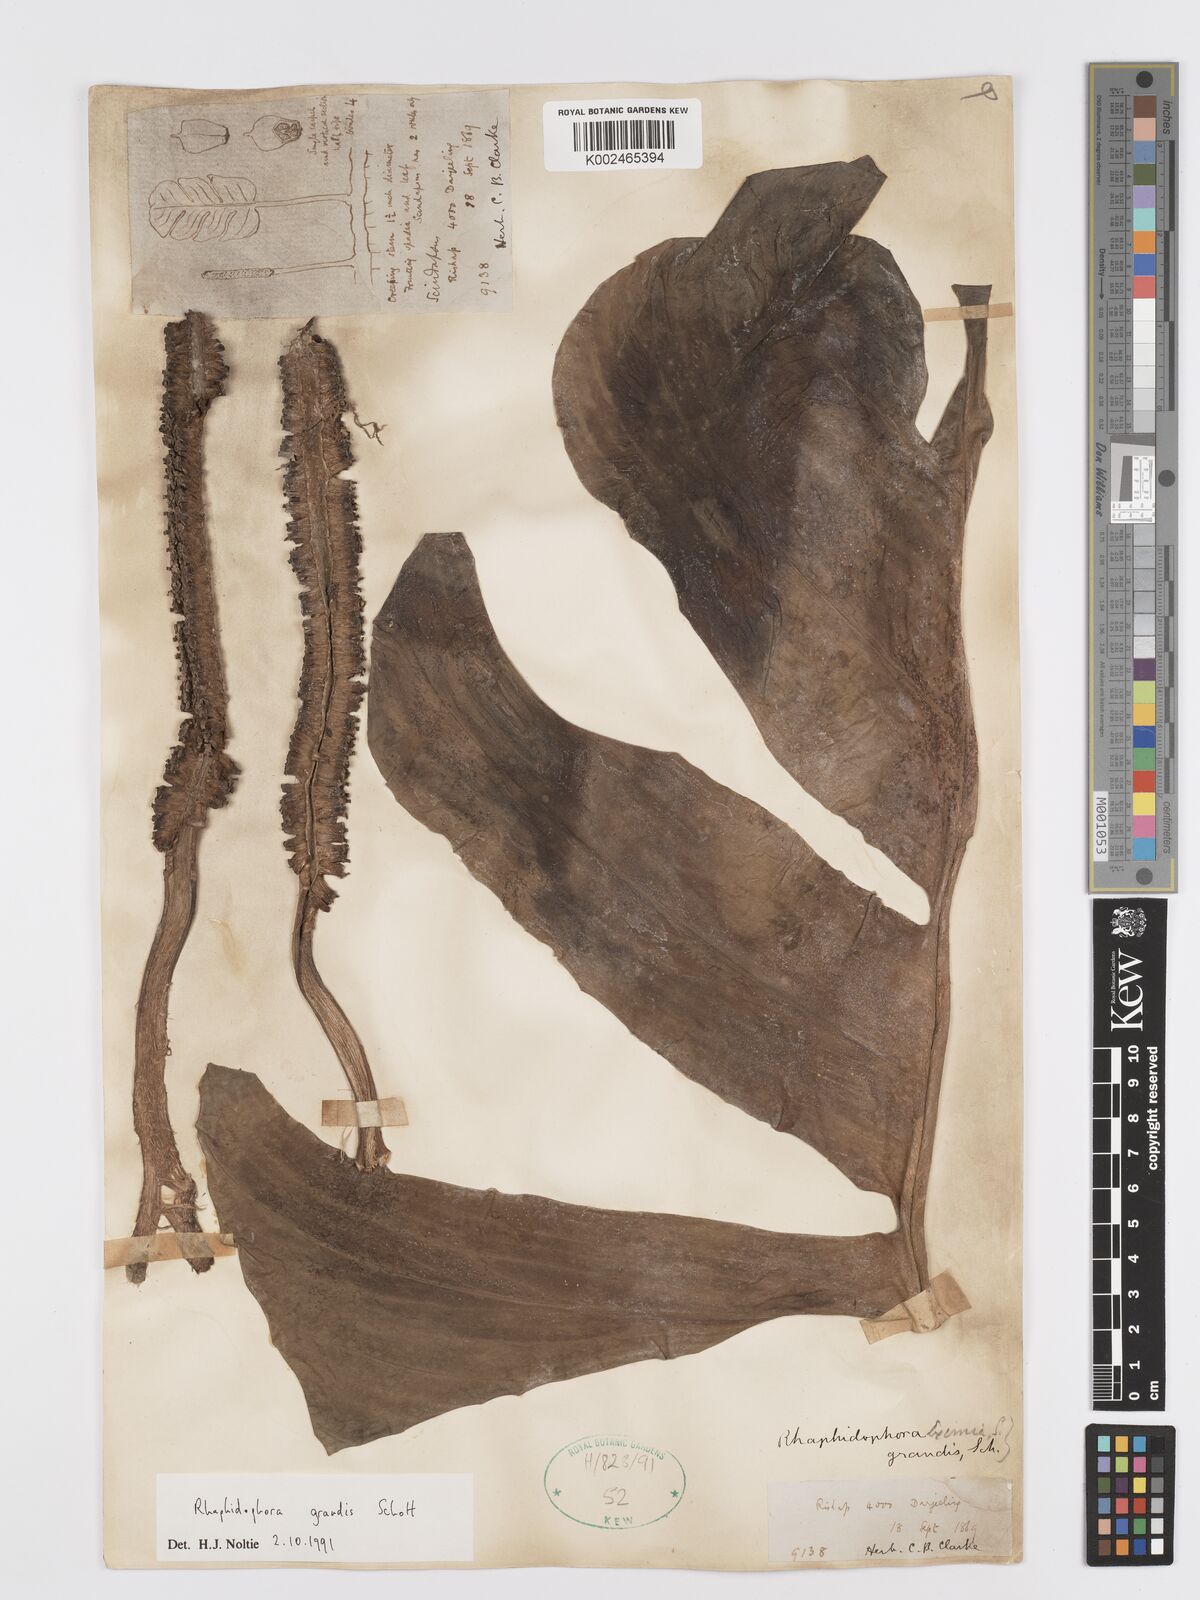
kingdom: Plantae
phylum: Tracheophyta
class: Liliopsida
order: Alismatales
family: Araceae
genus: Rhaphidophora
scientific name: Rhaphidophora decursiva
